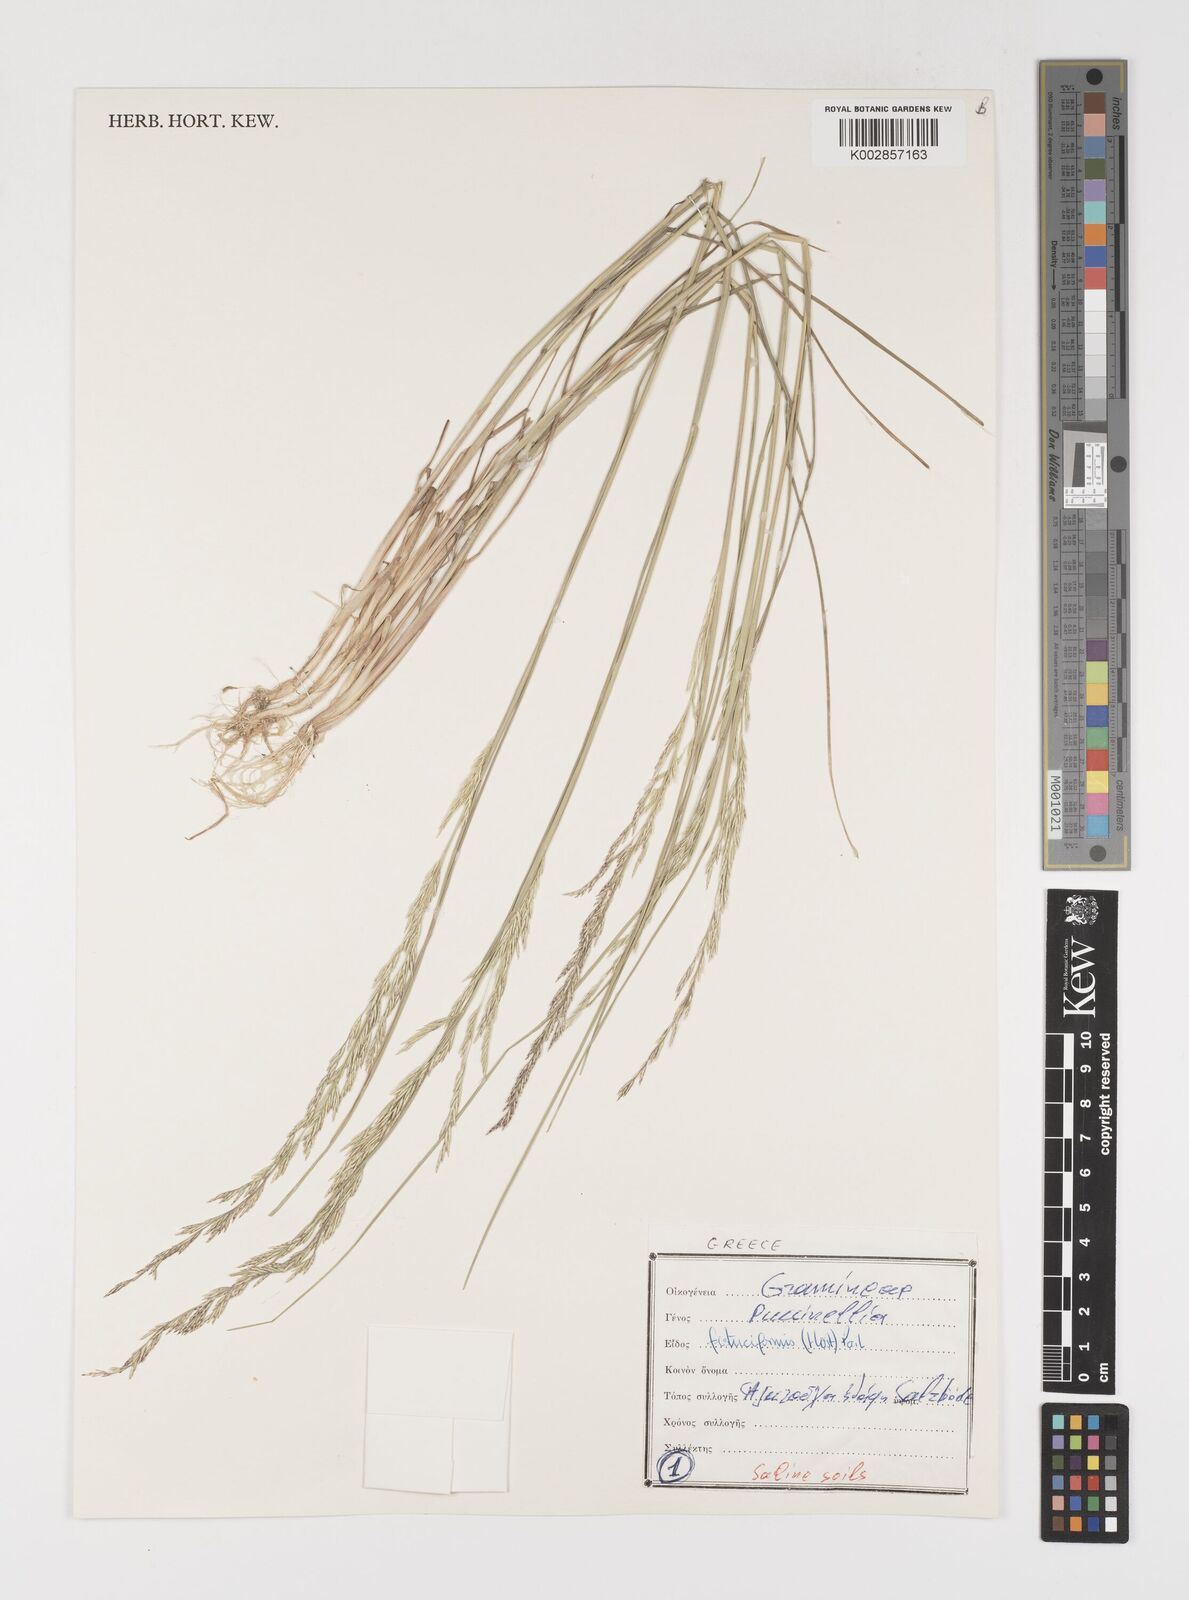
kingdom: Plantae
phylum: Tracheophyta
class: Liliopsida
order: Poales
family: Poaceae
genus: Puccinellia
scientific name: Puccinellia festuciformis
